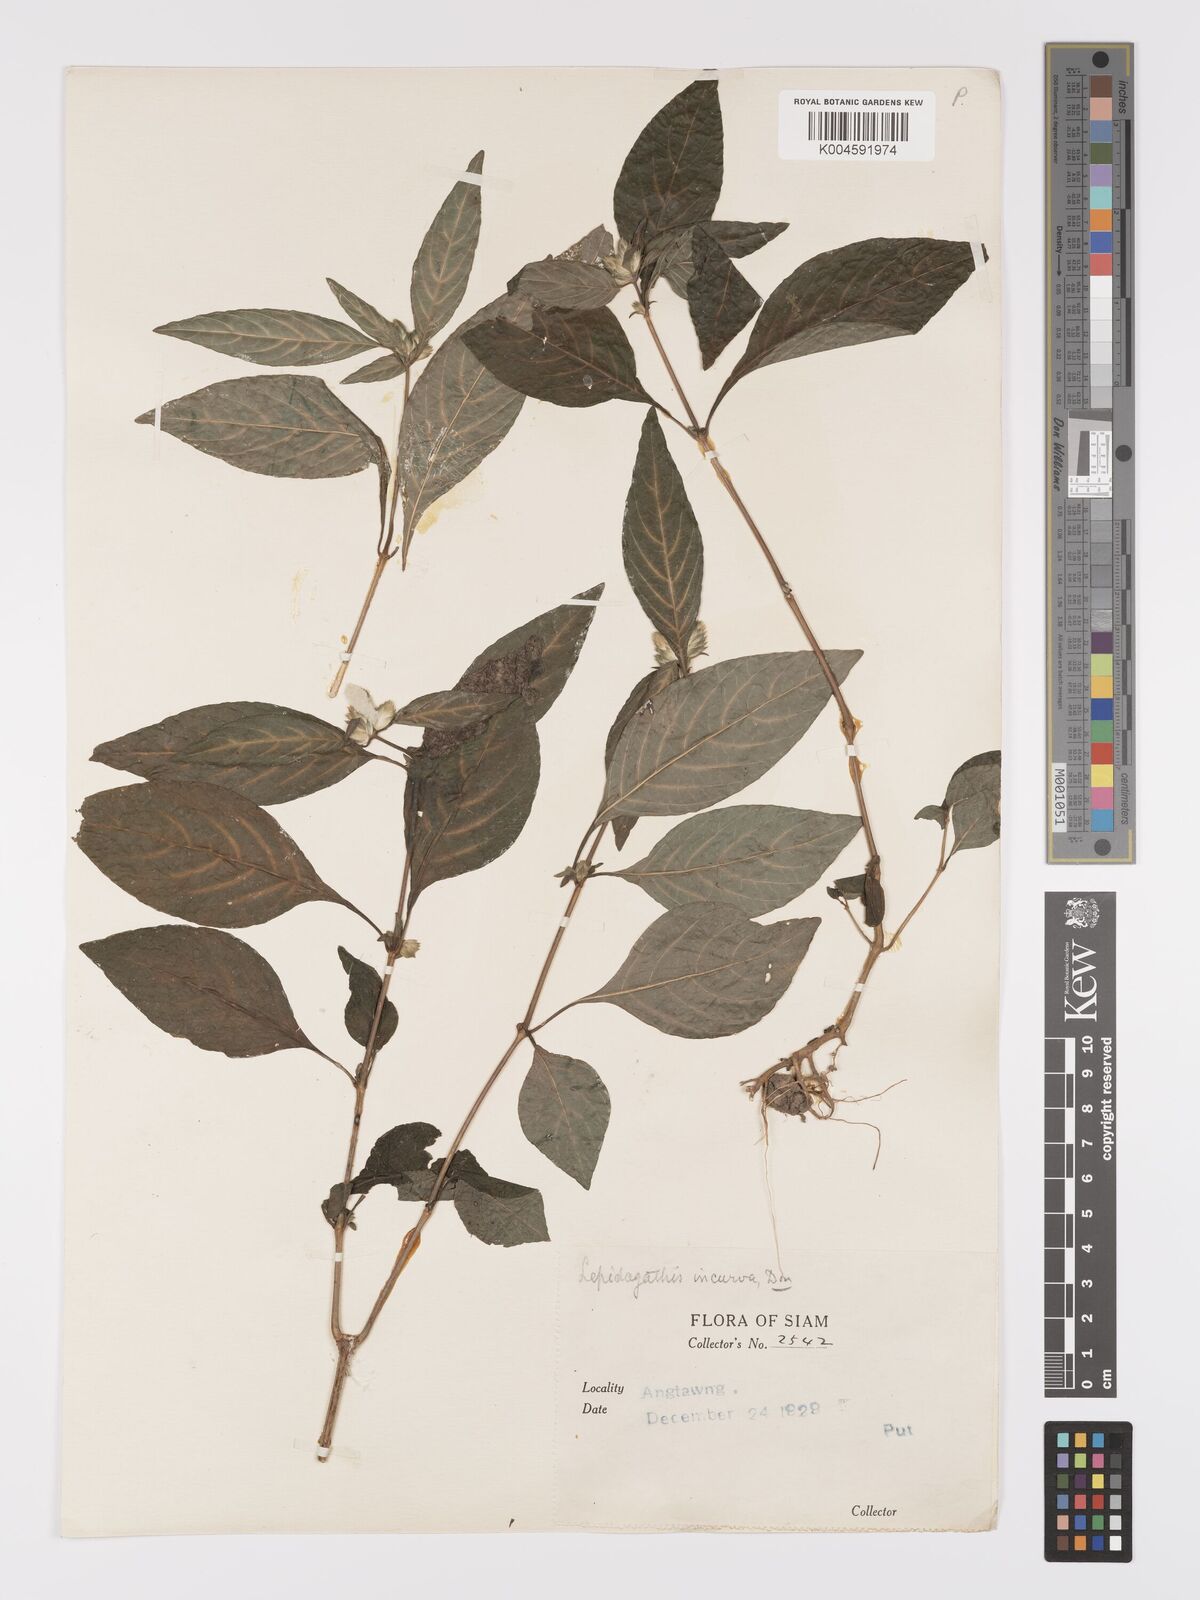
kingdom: Plantae
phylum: Tracheophyta
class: Magnoliopsida
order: Lamiales
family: Acanthaceae
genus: Lepidagathis
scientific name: Lepidagathis incurva
